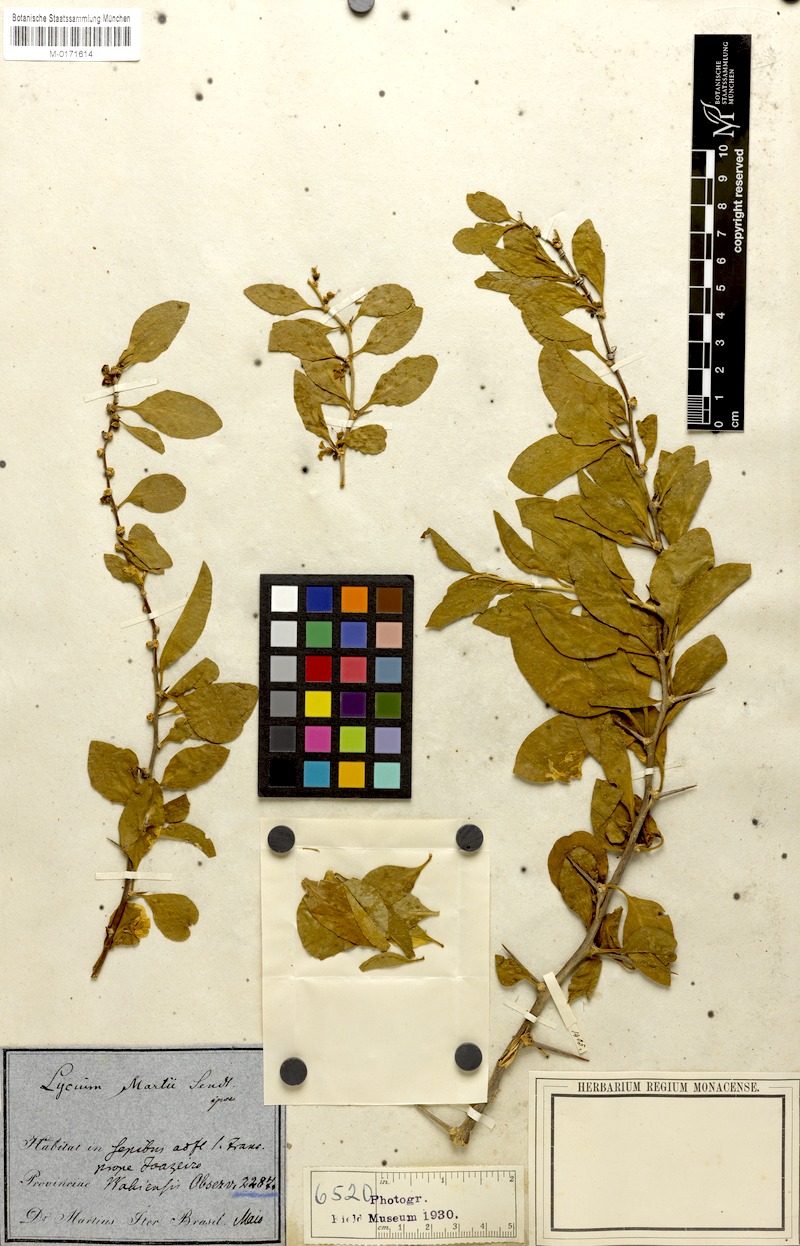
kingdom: Plantae
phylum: Tracheophyta
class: Magnoliopsida
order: Solanales
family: Solanaceae
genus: Lycium
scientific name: Lycium martii
